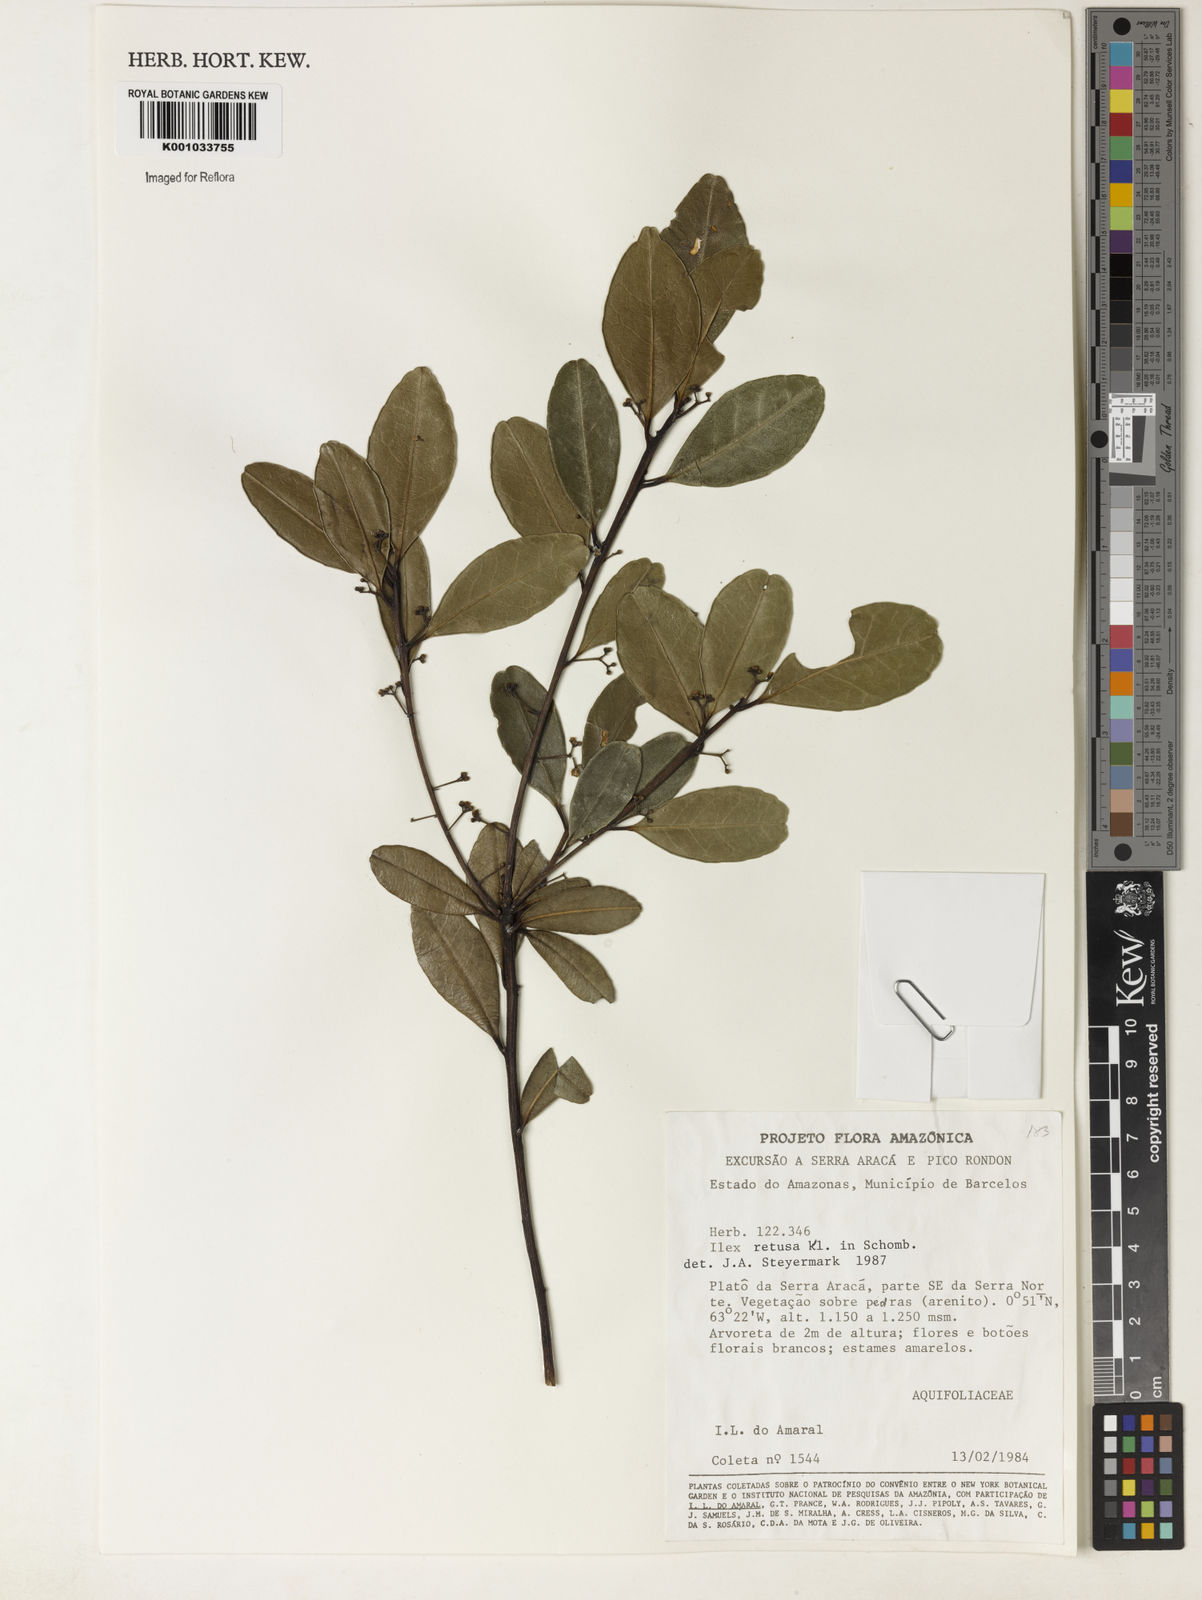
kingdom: Plantae
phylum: Tracheophyta
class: Magnoliopsida
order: Aquifoliales
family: Aquifoliaceae
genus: Ilex
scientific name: Ilex
